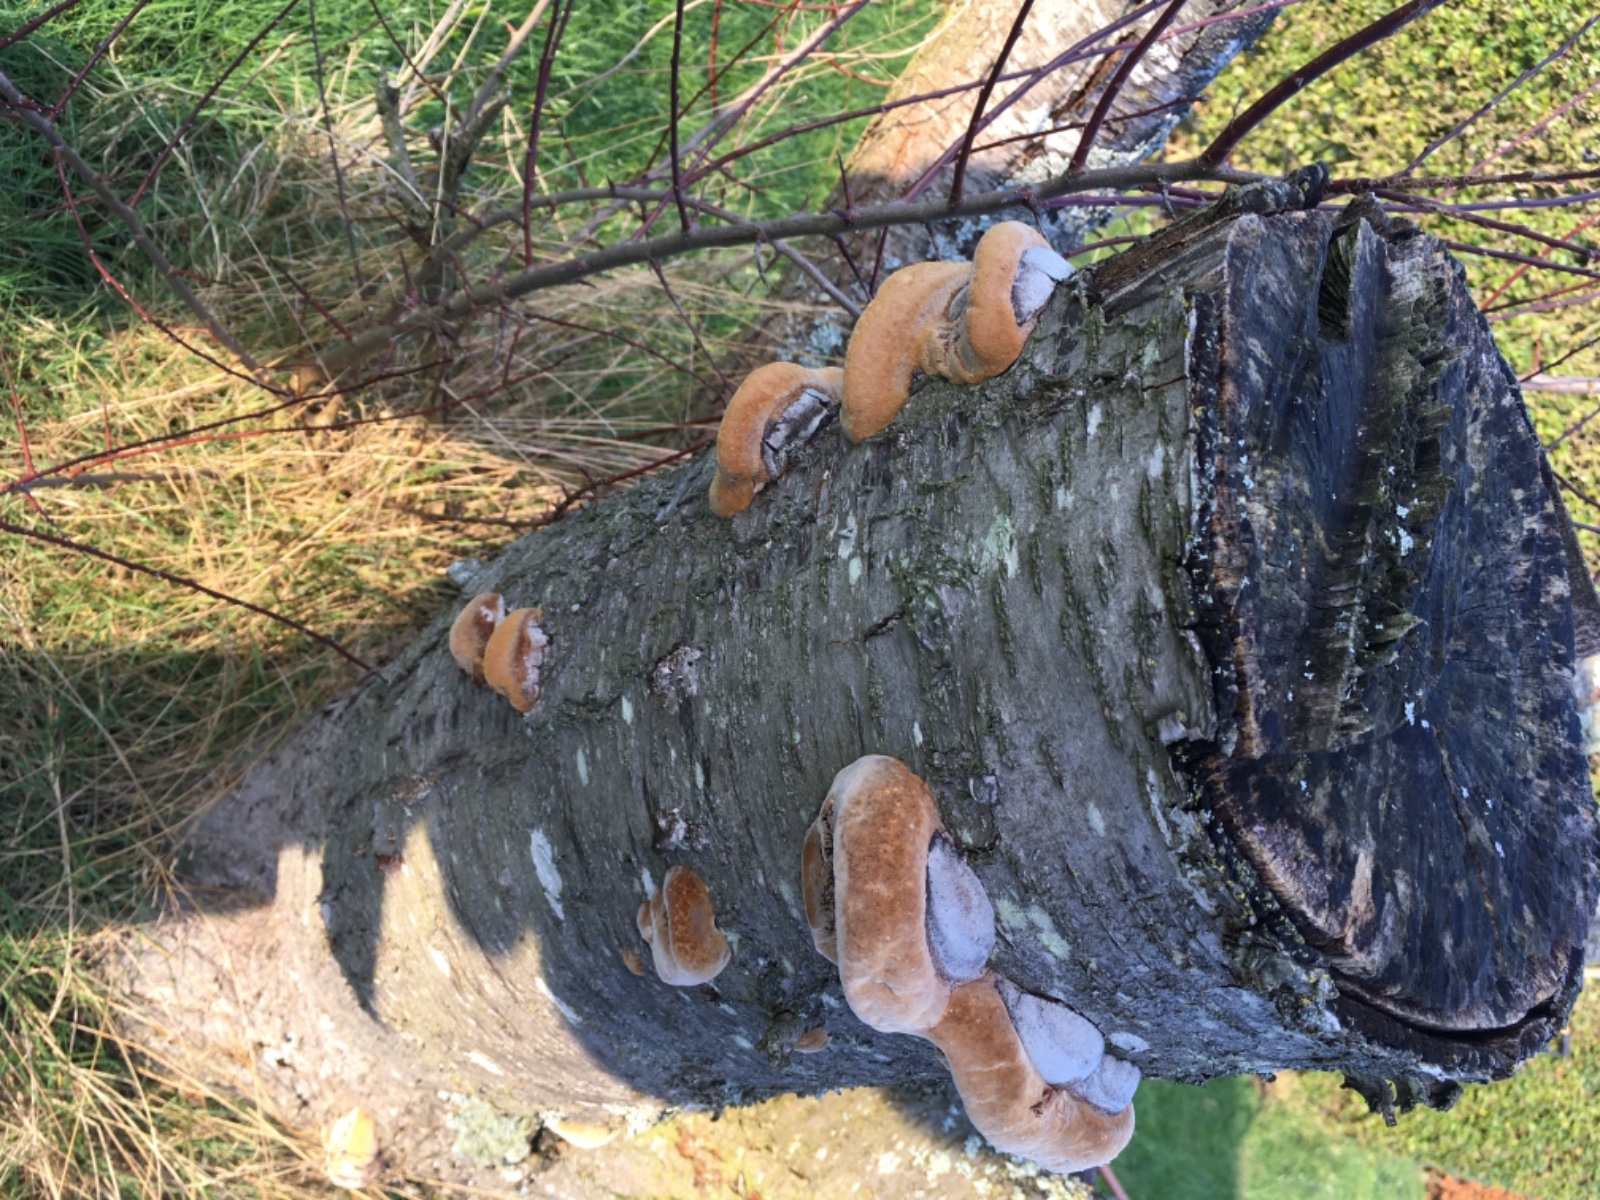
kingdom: Fungi
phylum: Basidiomycota
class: Agaricomycetes
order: Hymenochaetales
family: Hymenochaetaceae
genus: Phellinus
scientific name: Phellinus pomaceus
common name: blomme-ildporesvamp
